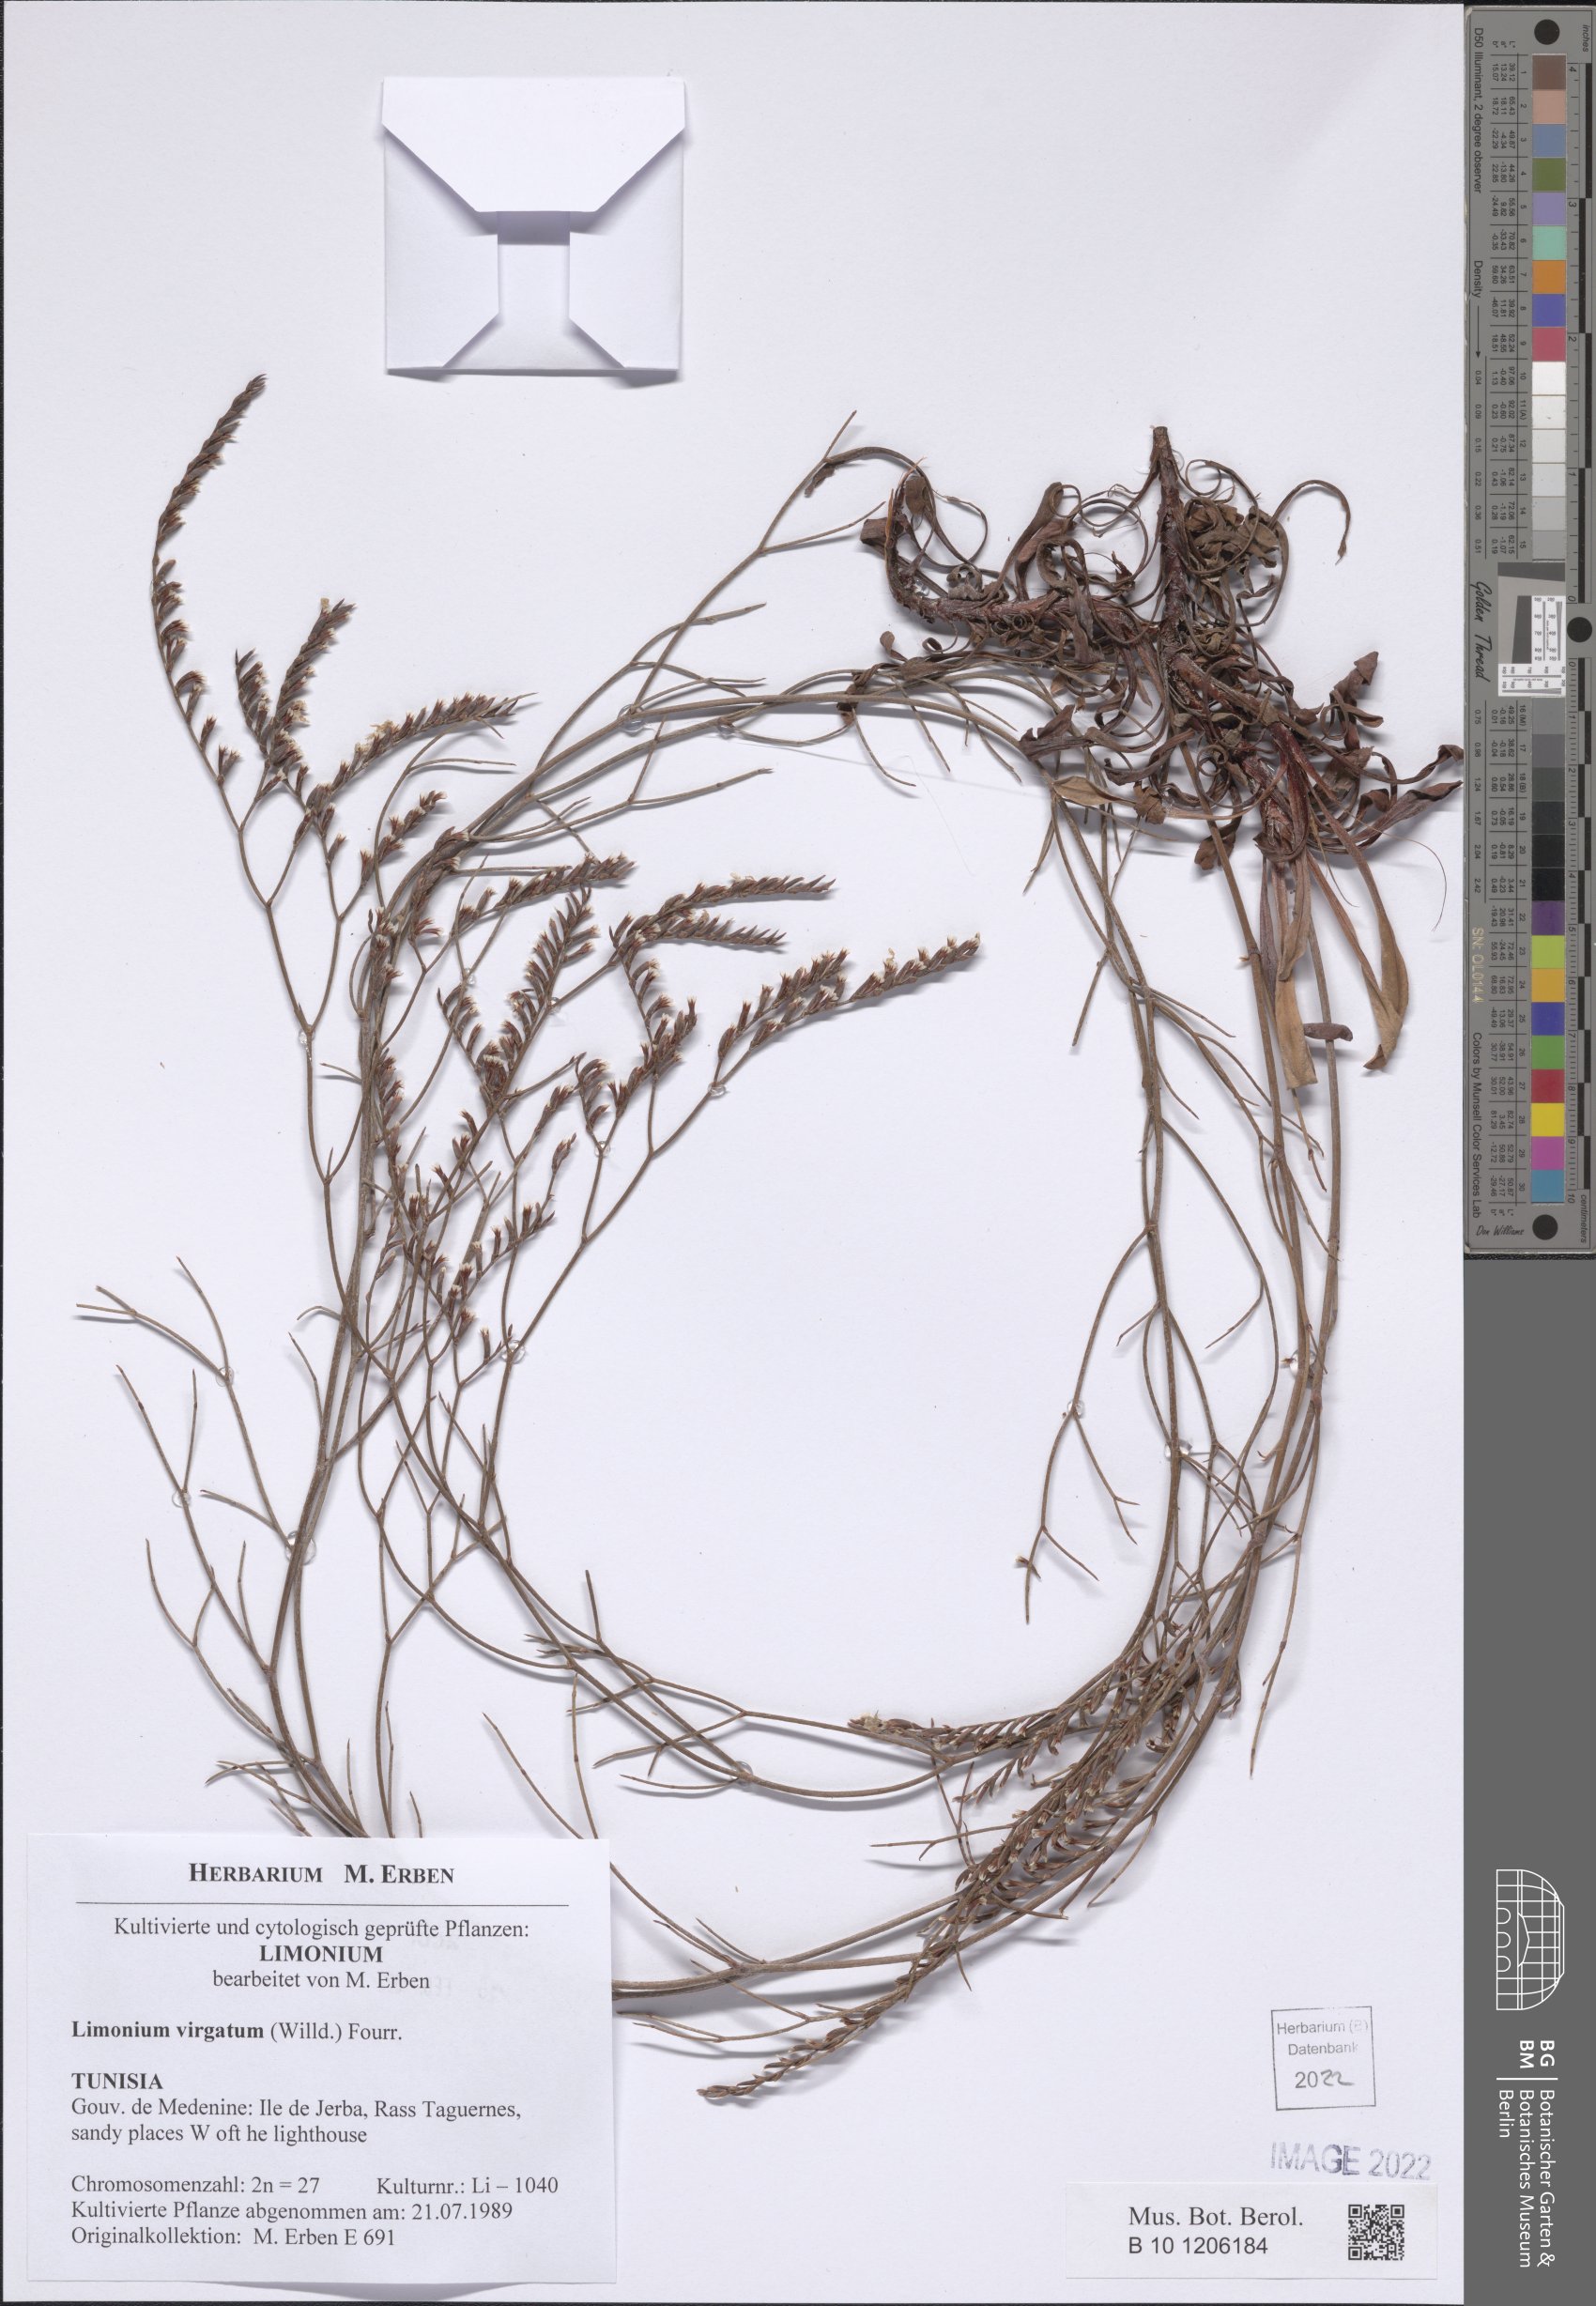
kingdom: Plantae
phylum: Tracheophyta
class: Magnoliopsida
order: Caryophyllales
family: Plumbaginaceae
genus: Limonium
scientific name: Limonium virgatum
